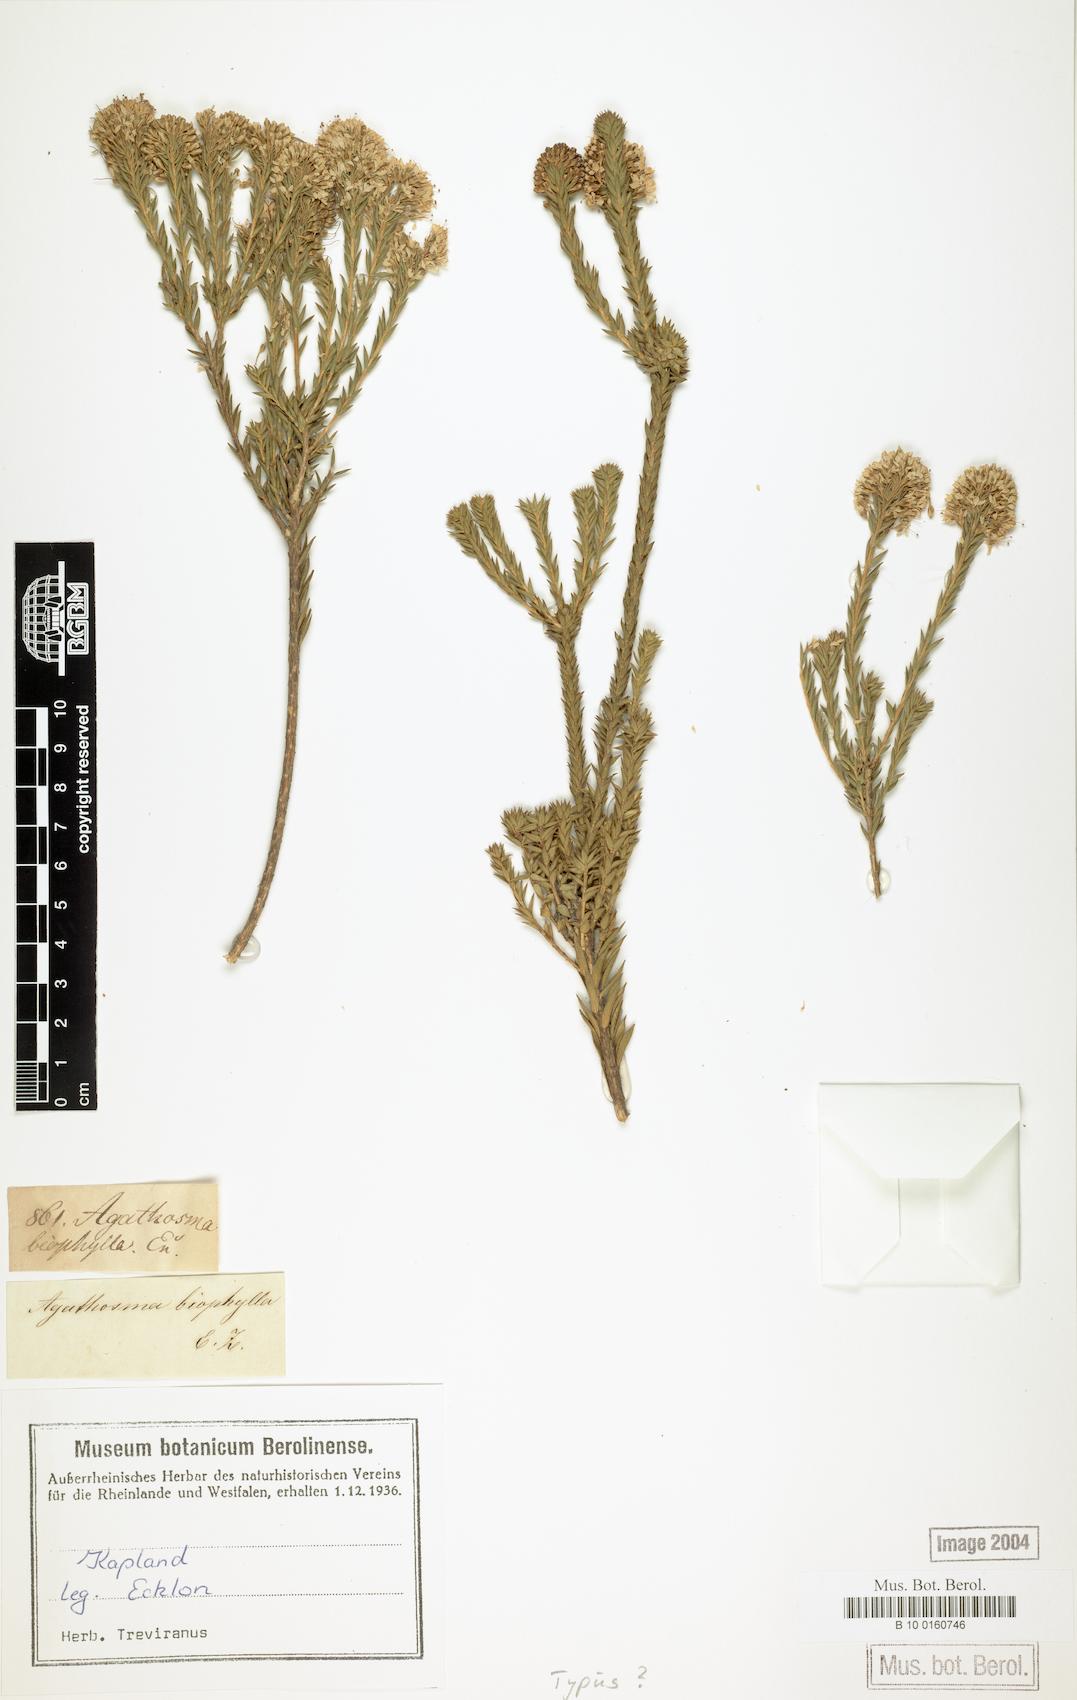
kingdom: Plantae
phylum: Tracheophyta
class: Magnoliopsida
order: Sapindales
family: Rutaceae
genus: Agathosma
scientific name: Agathosma adenocaulis
